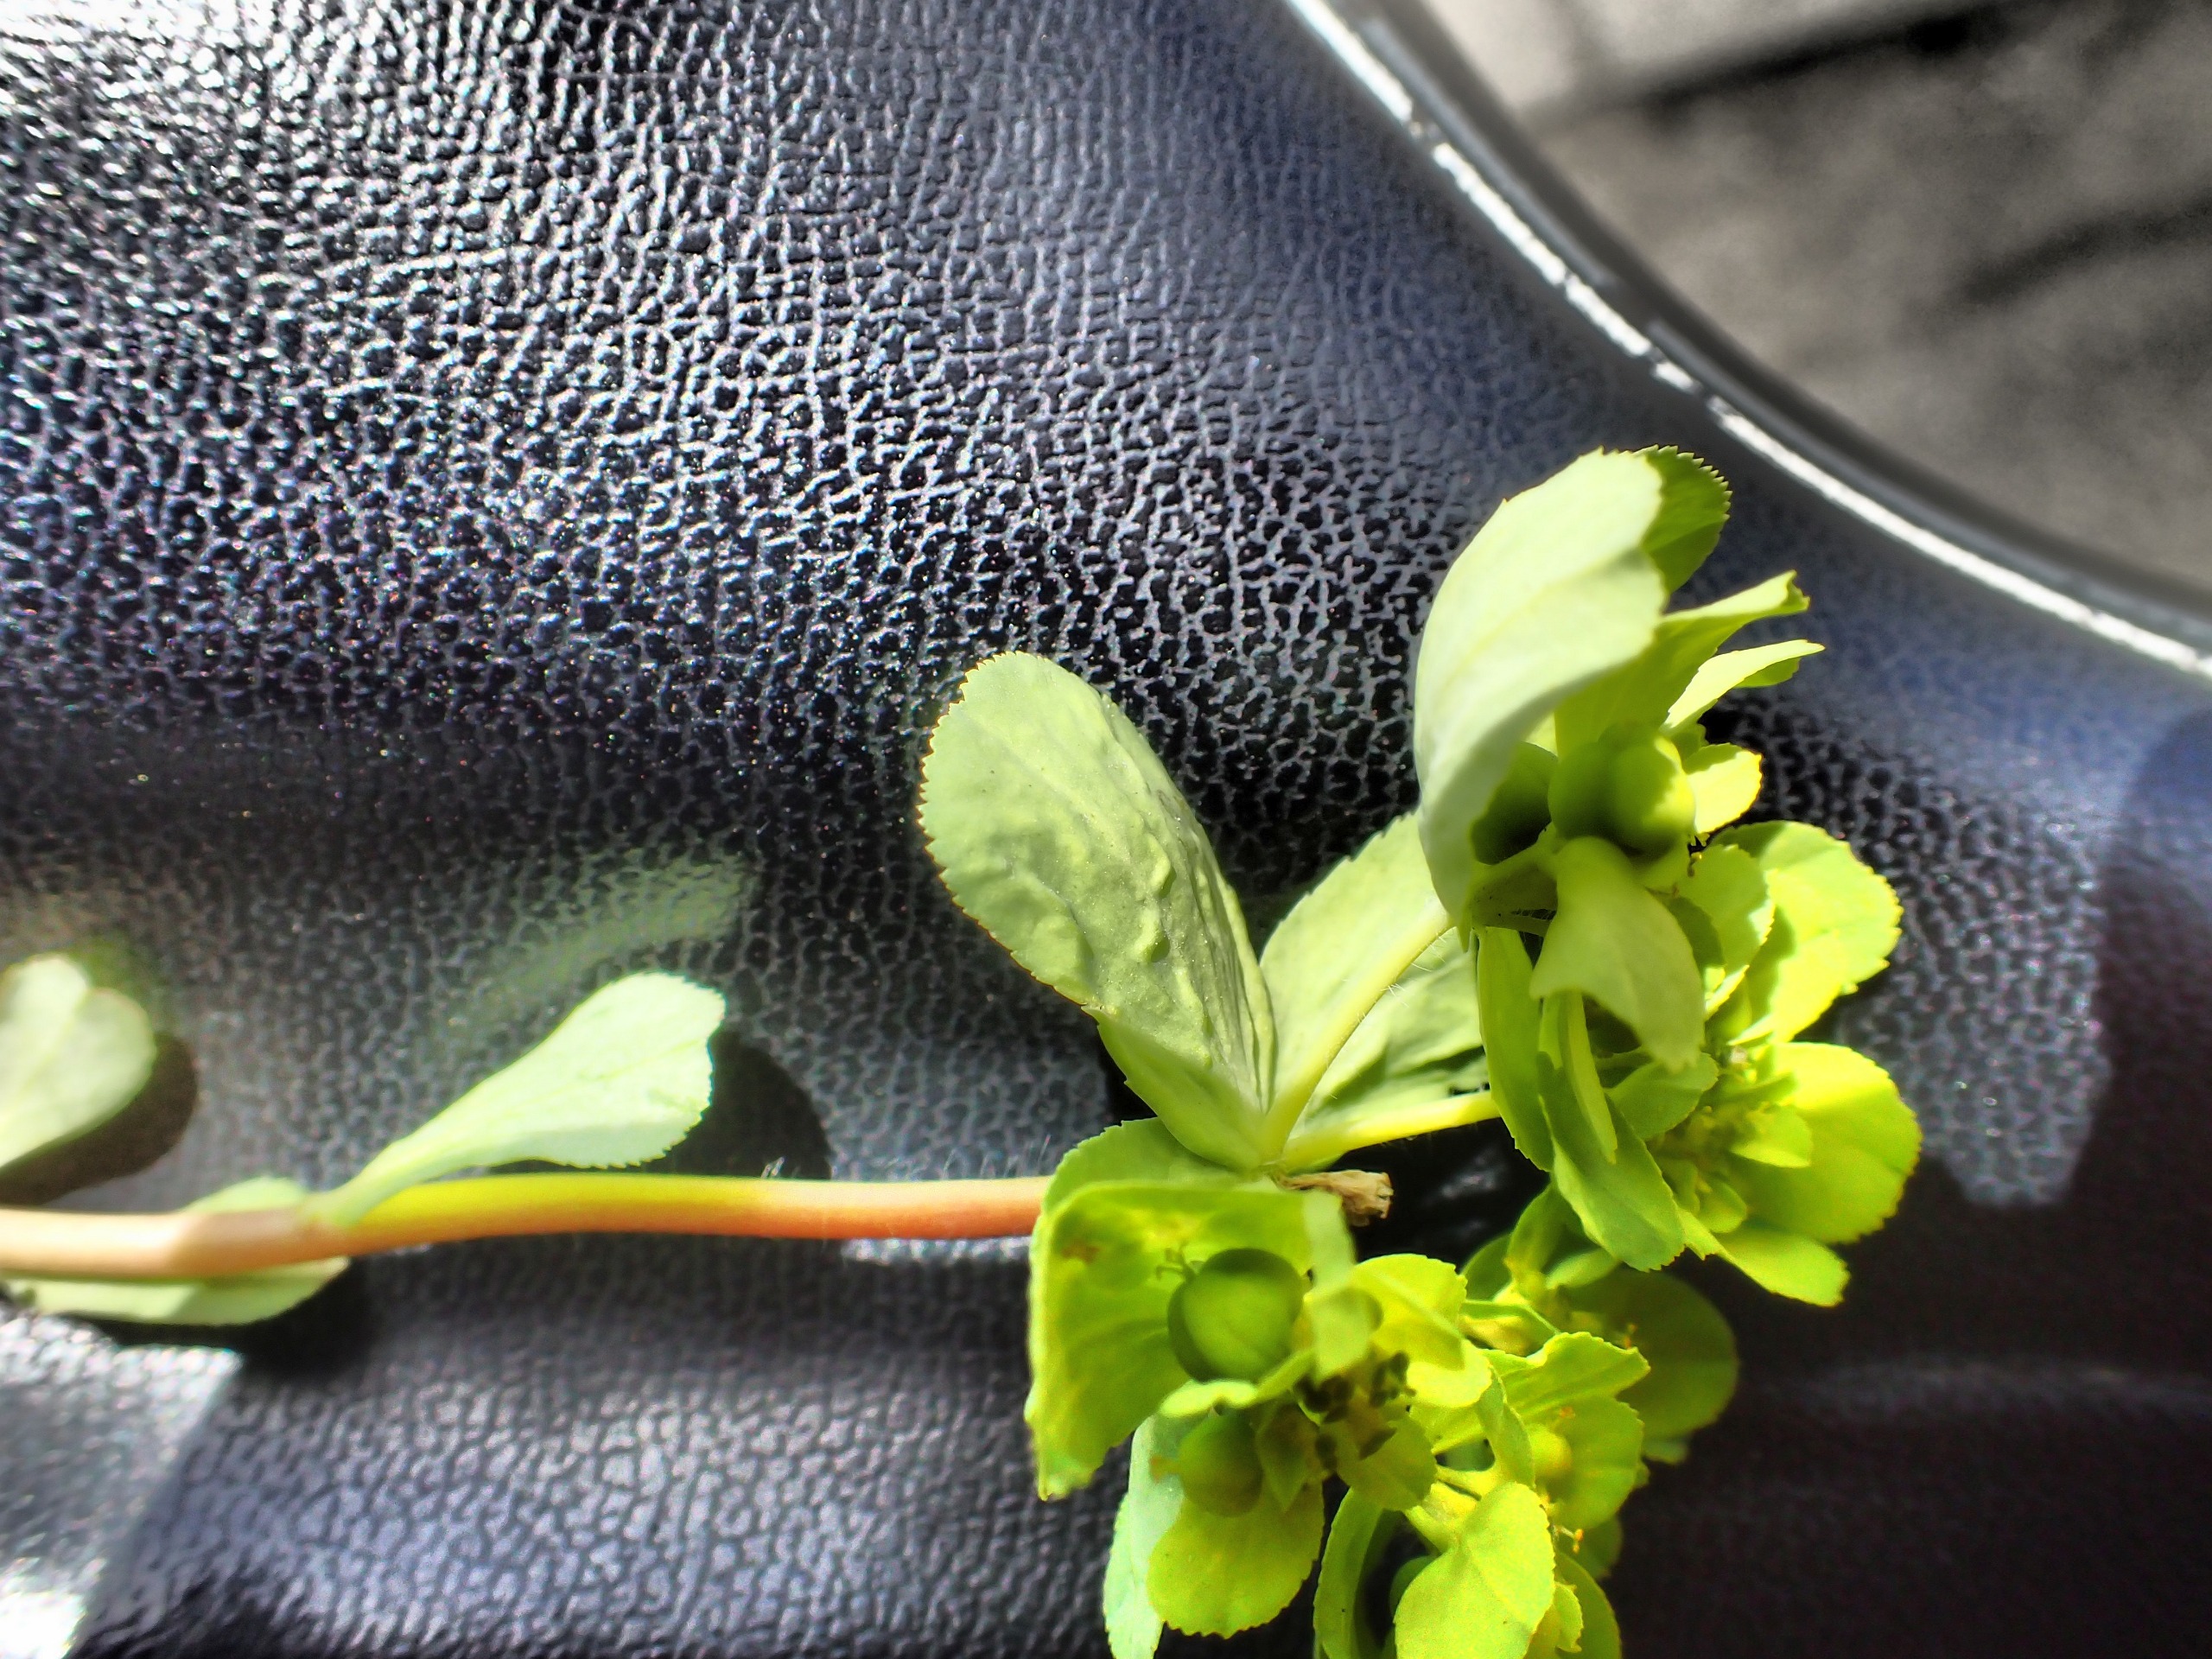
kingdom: Plantae
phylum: Tracheophyta
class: Magnoliopsida
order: Malpighiales
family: Euphorbiaceae
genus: Euphorbia
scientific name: Euphorbia helioscopia
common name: Skærm-vortemælk
